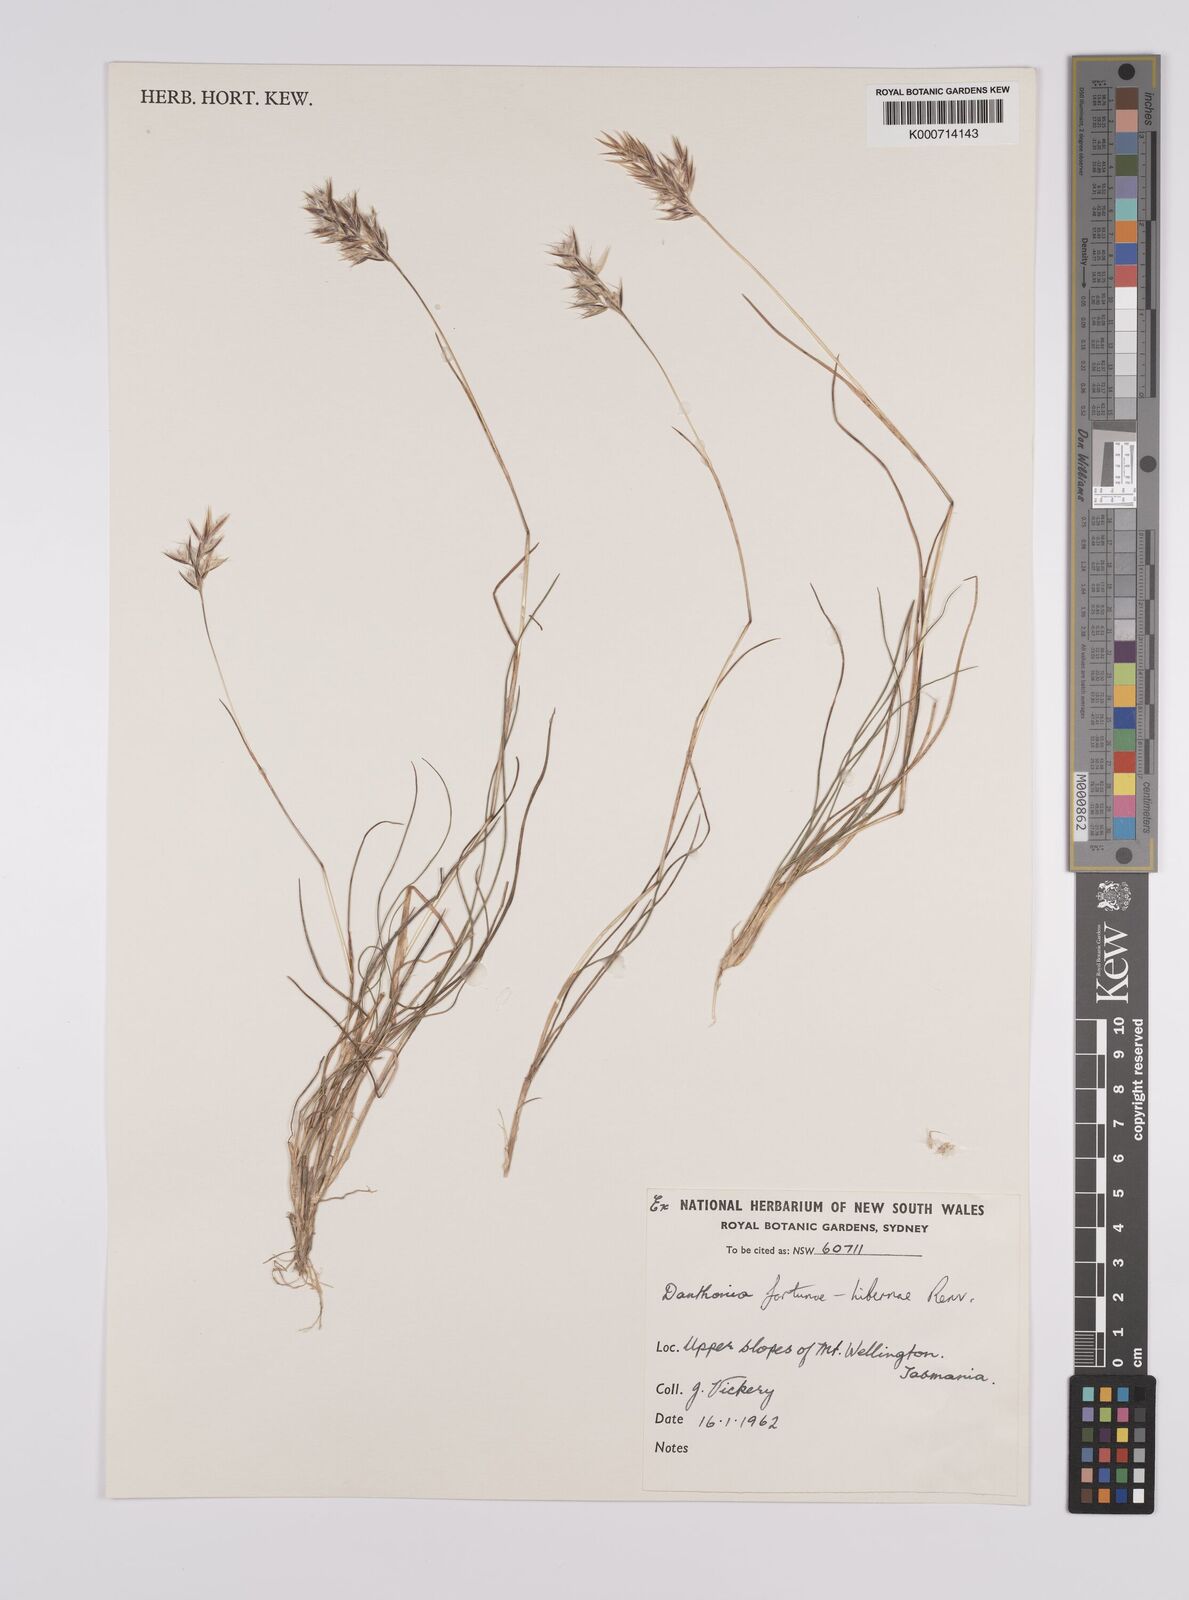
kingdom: Plantae
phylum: Tracheophyta
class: Liliopsida
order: Poales
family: Poaceae
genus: Rytidosperma
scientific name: Rytidosperma fortunae-hibernae
